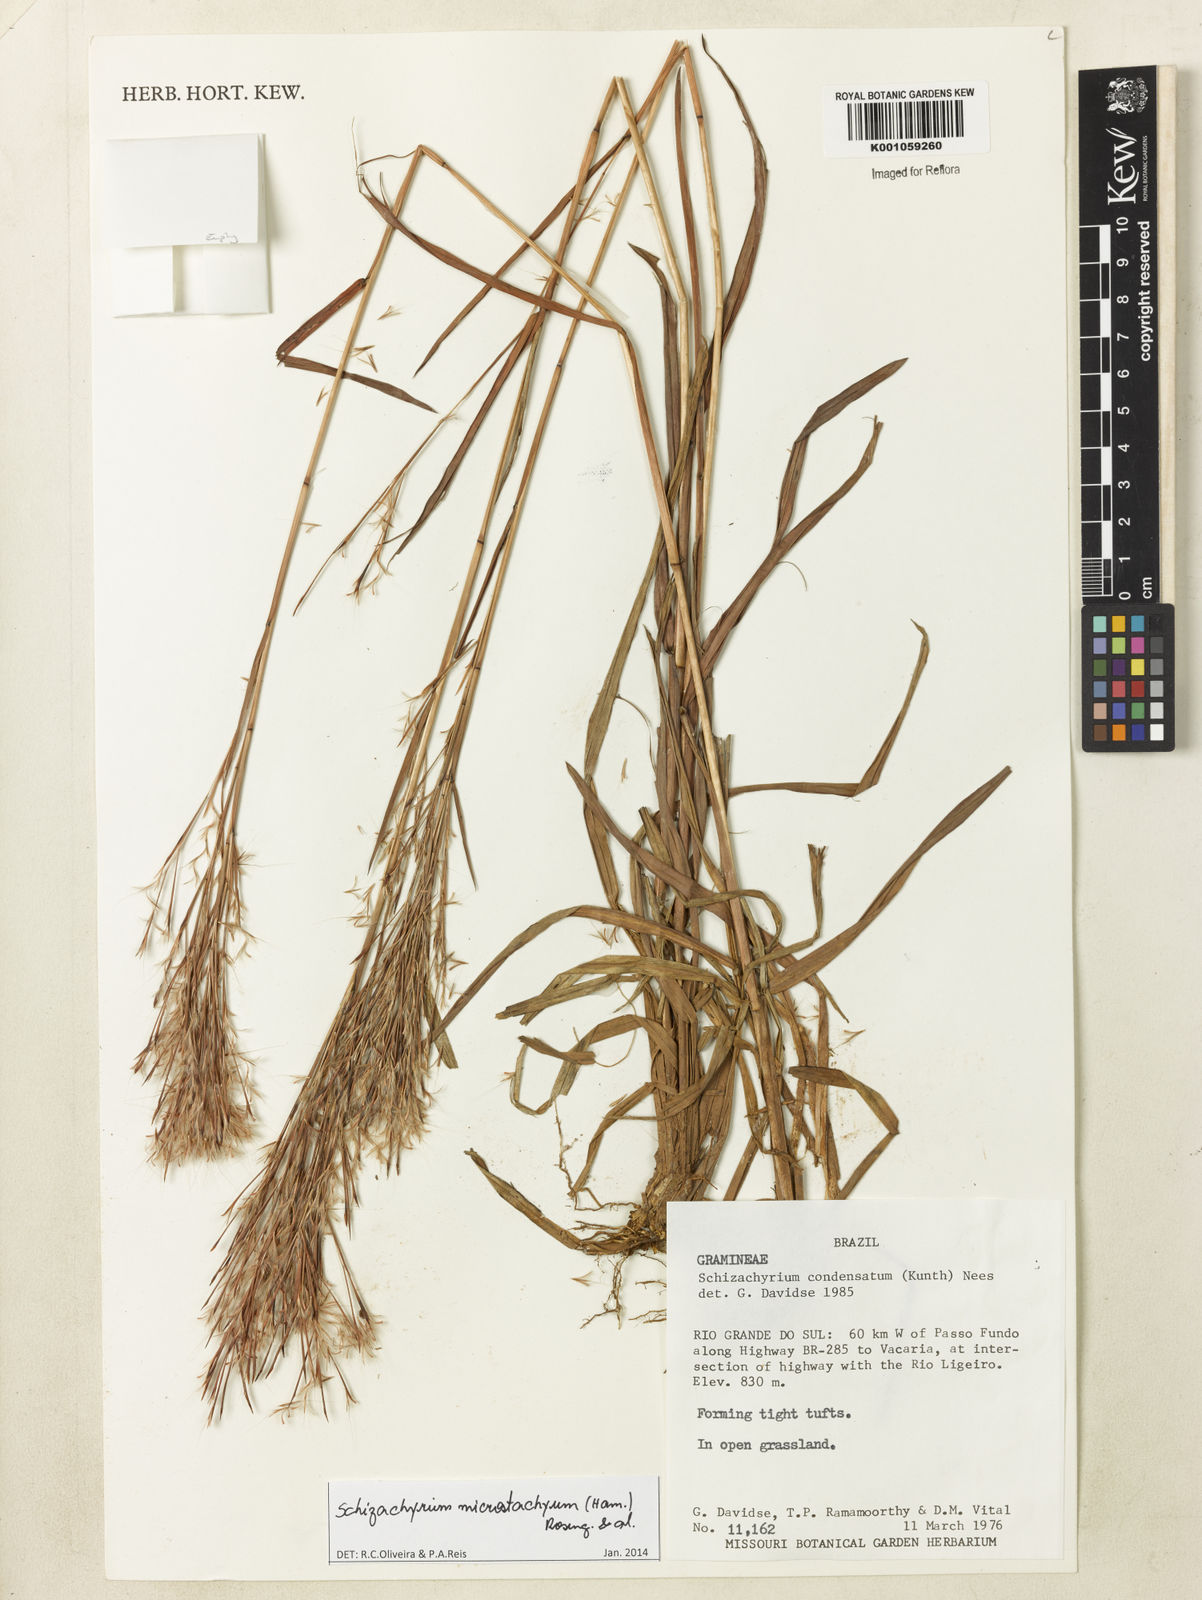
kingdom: Plantae
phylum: Tracheophyta
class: Liliopsida
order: Poales
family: Poaceae
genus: Schizachyrium
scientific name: Schizachyrium
